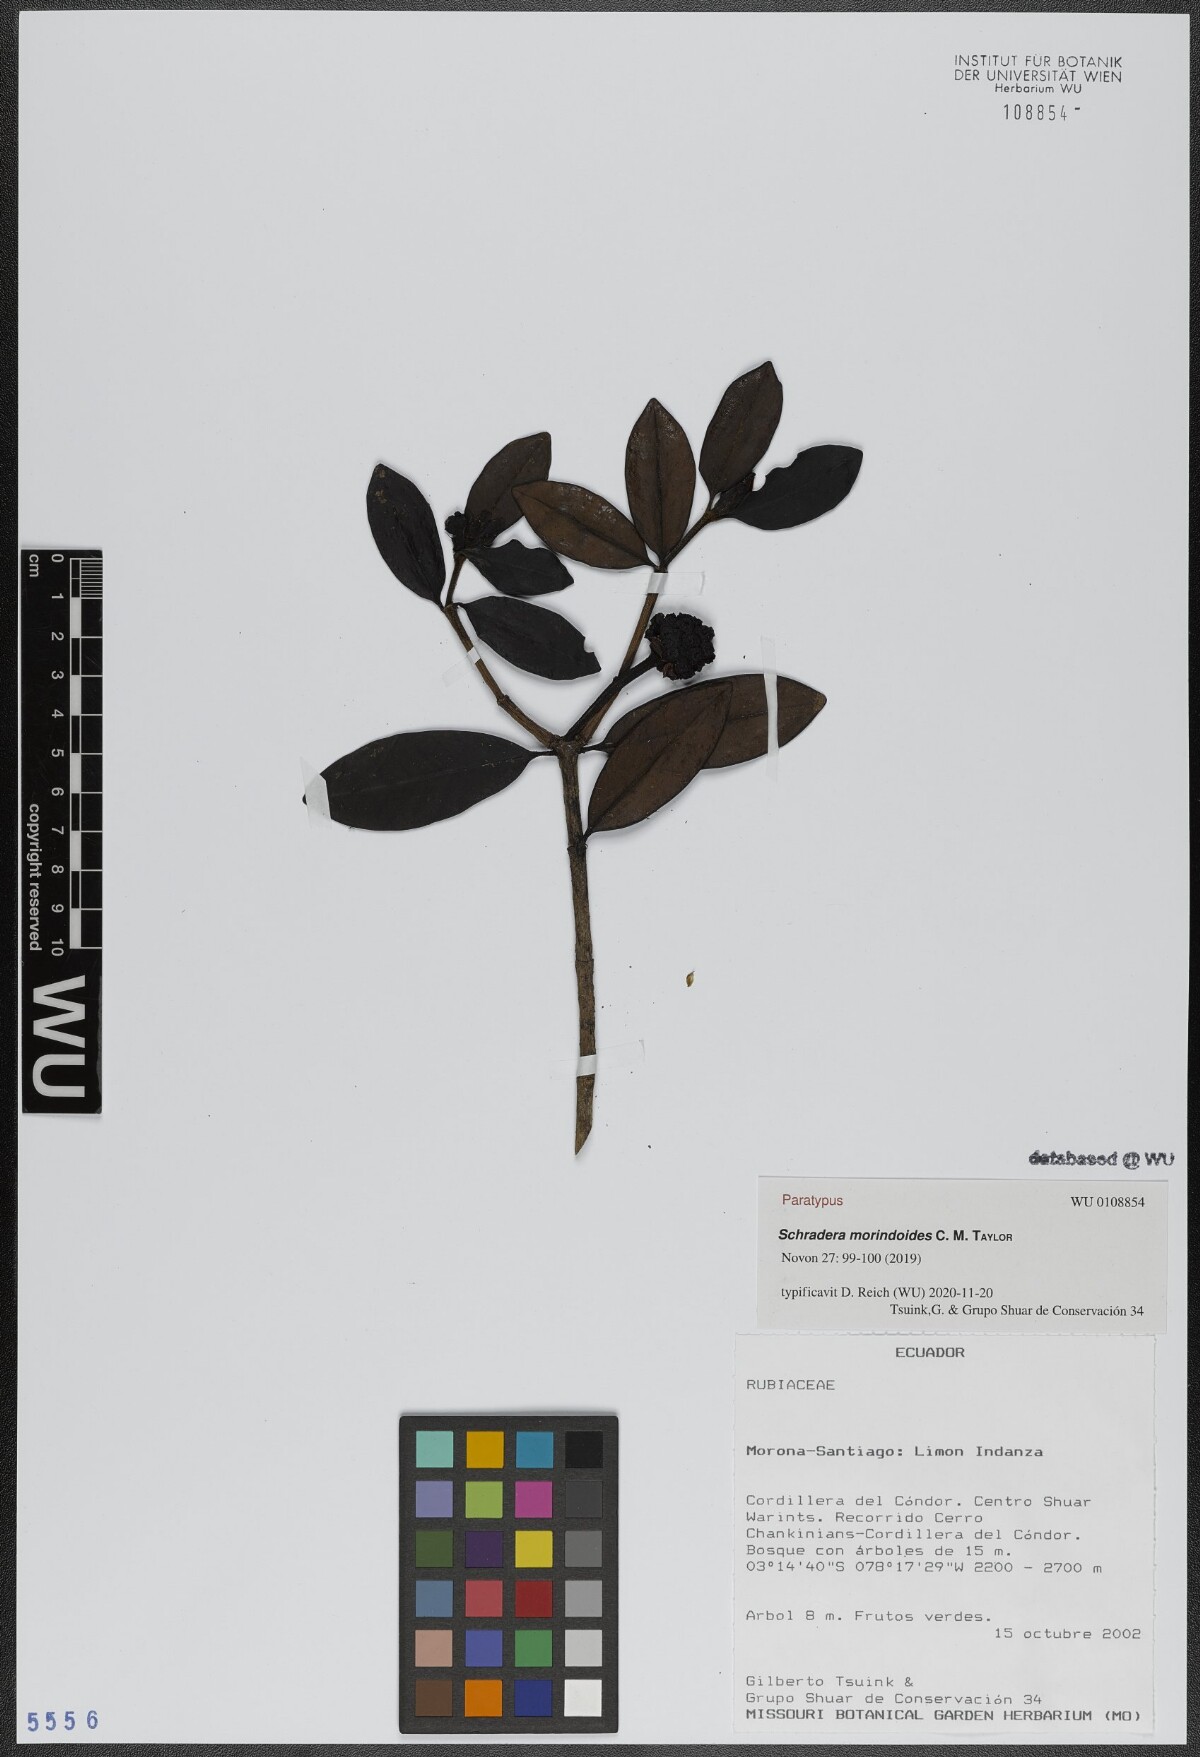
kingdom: Plantae
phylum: Tracheophyta
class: Magnoliopsida
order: Gentianales
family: Rubiaceae
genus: Schradera
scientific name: Schradera morindoides
